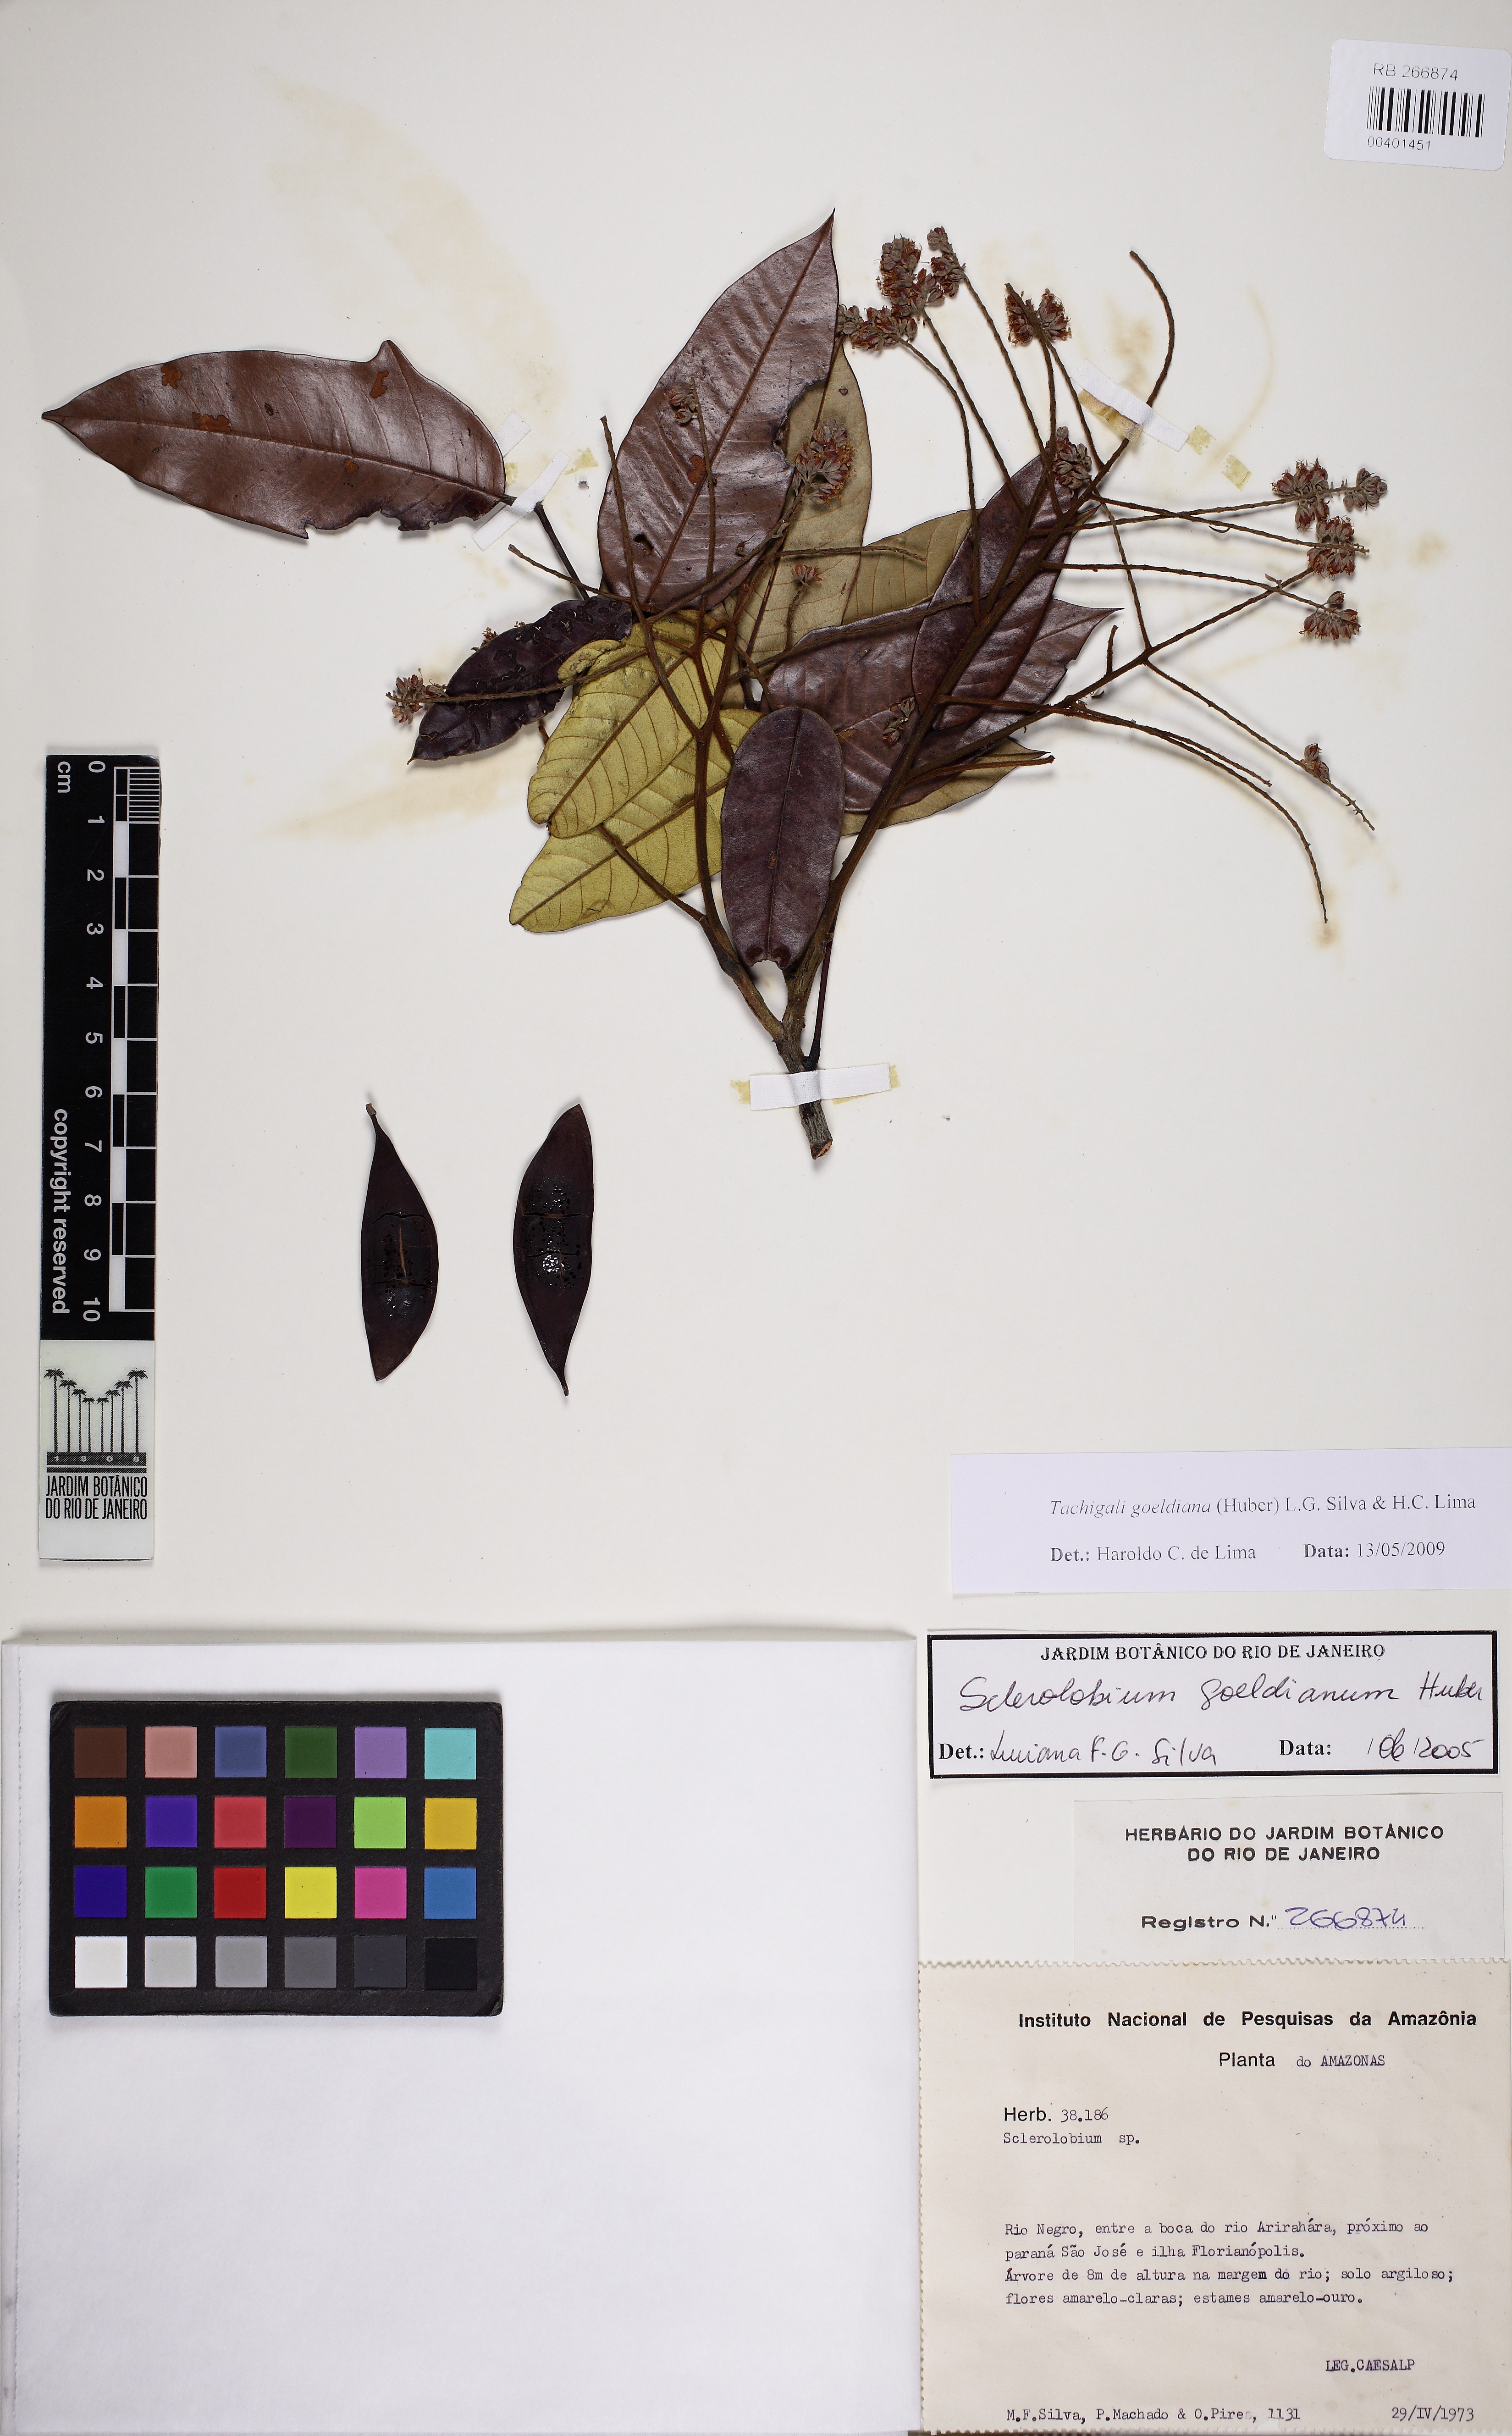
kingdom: Plantae
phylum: Tracheophyta
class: Magnoliopsida
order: Fabales
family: Fabaceae
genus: Tachigali
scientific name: Tachigali goeldiana
